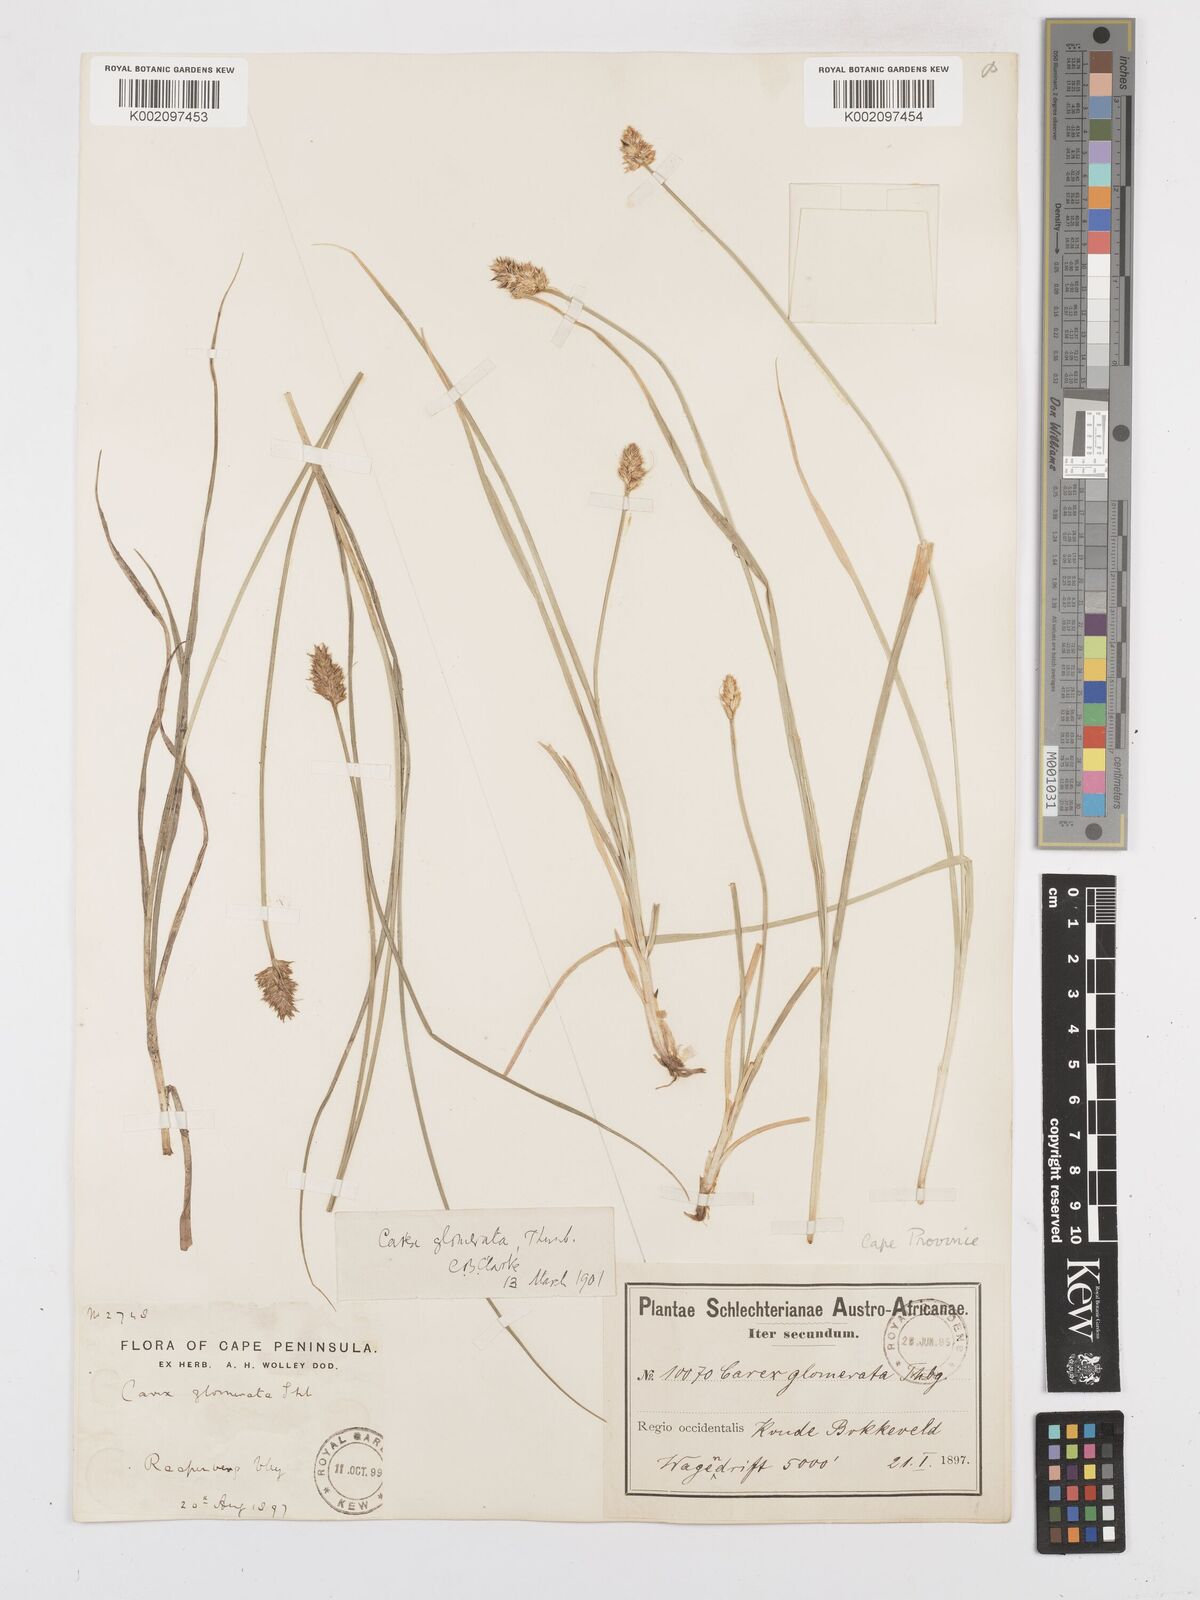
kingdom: Plantae
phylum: Tracheophyta
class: Liliopsida
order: Poales
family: Cyperaceae
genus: Carex
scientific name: Carex glomerata
